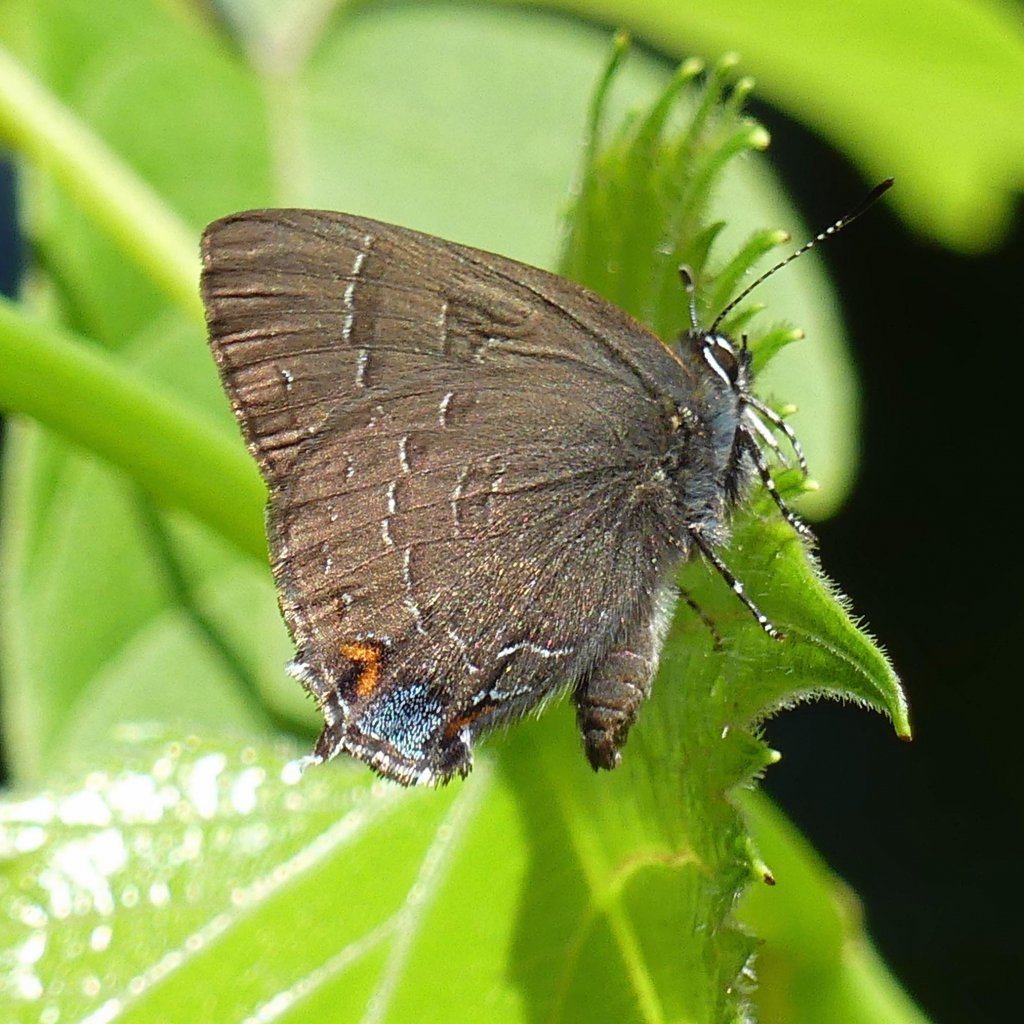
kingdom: Animalia
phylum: Arthropoda
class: Insecta
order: Lepidoptera
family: Lycaenidae
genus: Satyrium
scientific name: Satyrium calanus
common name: Banded Hairstreak
